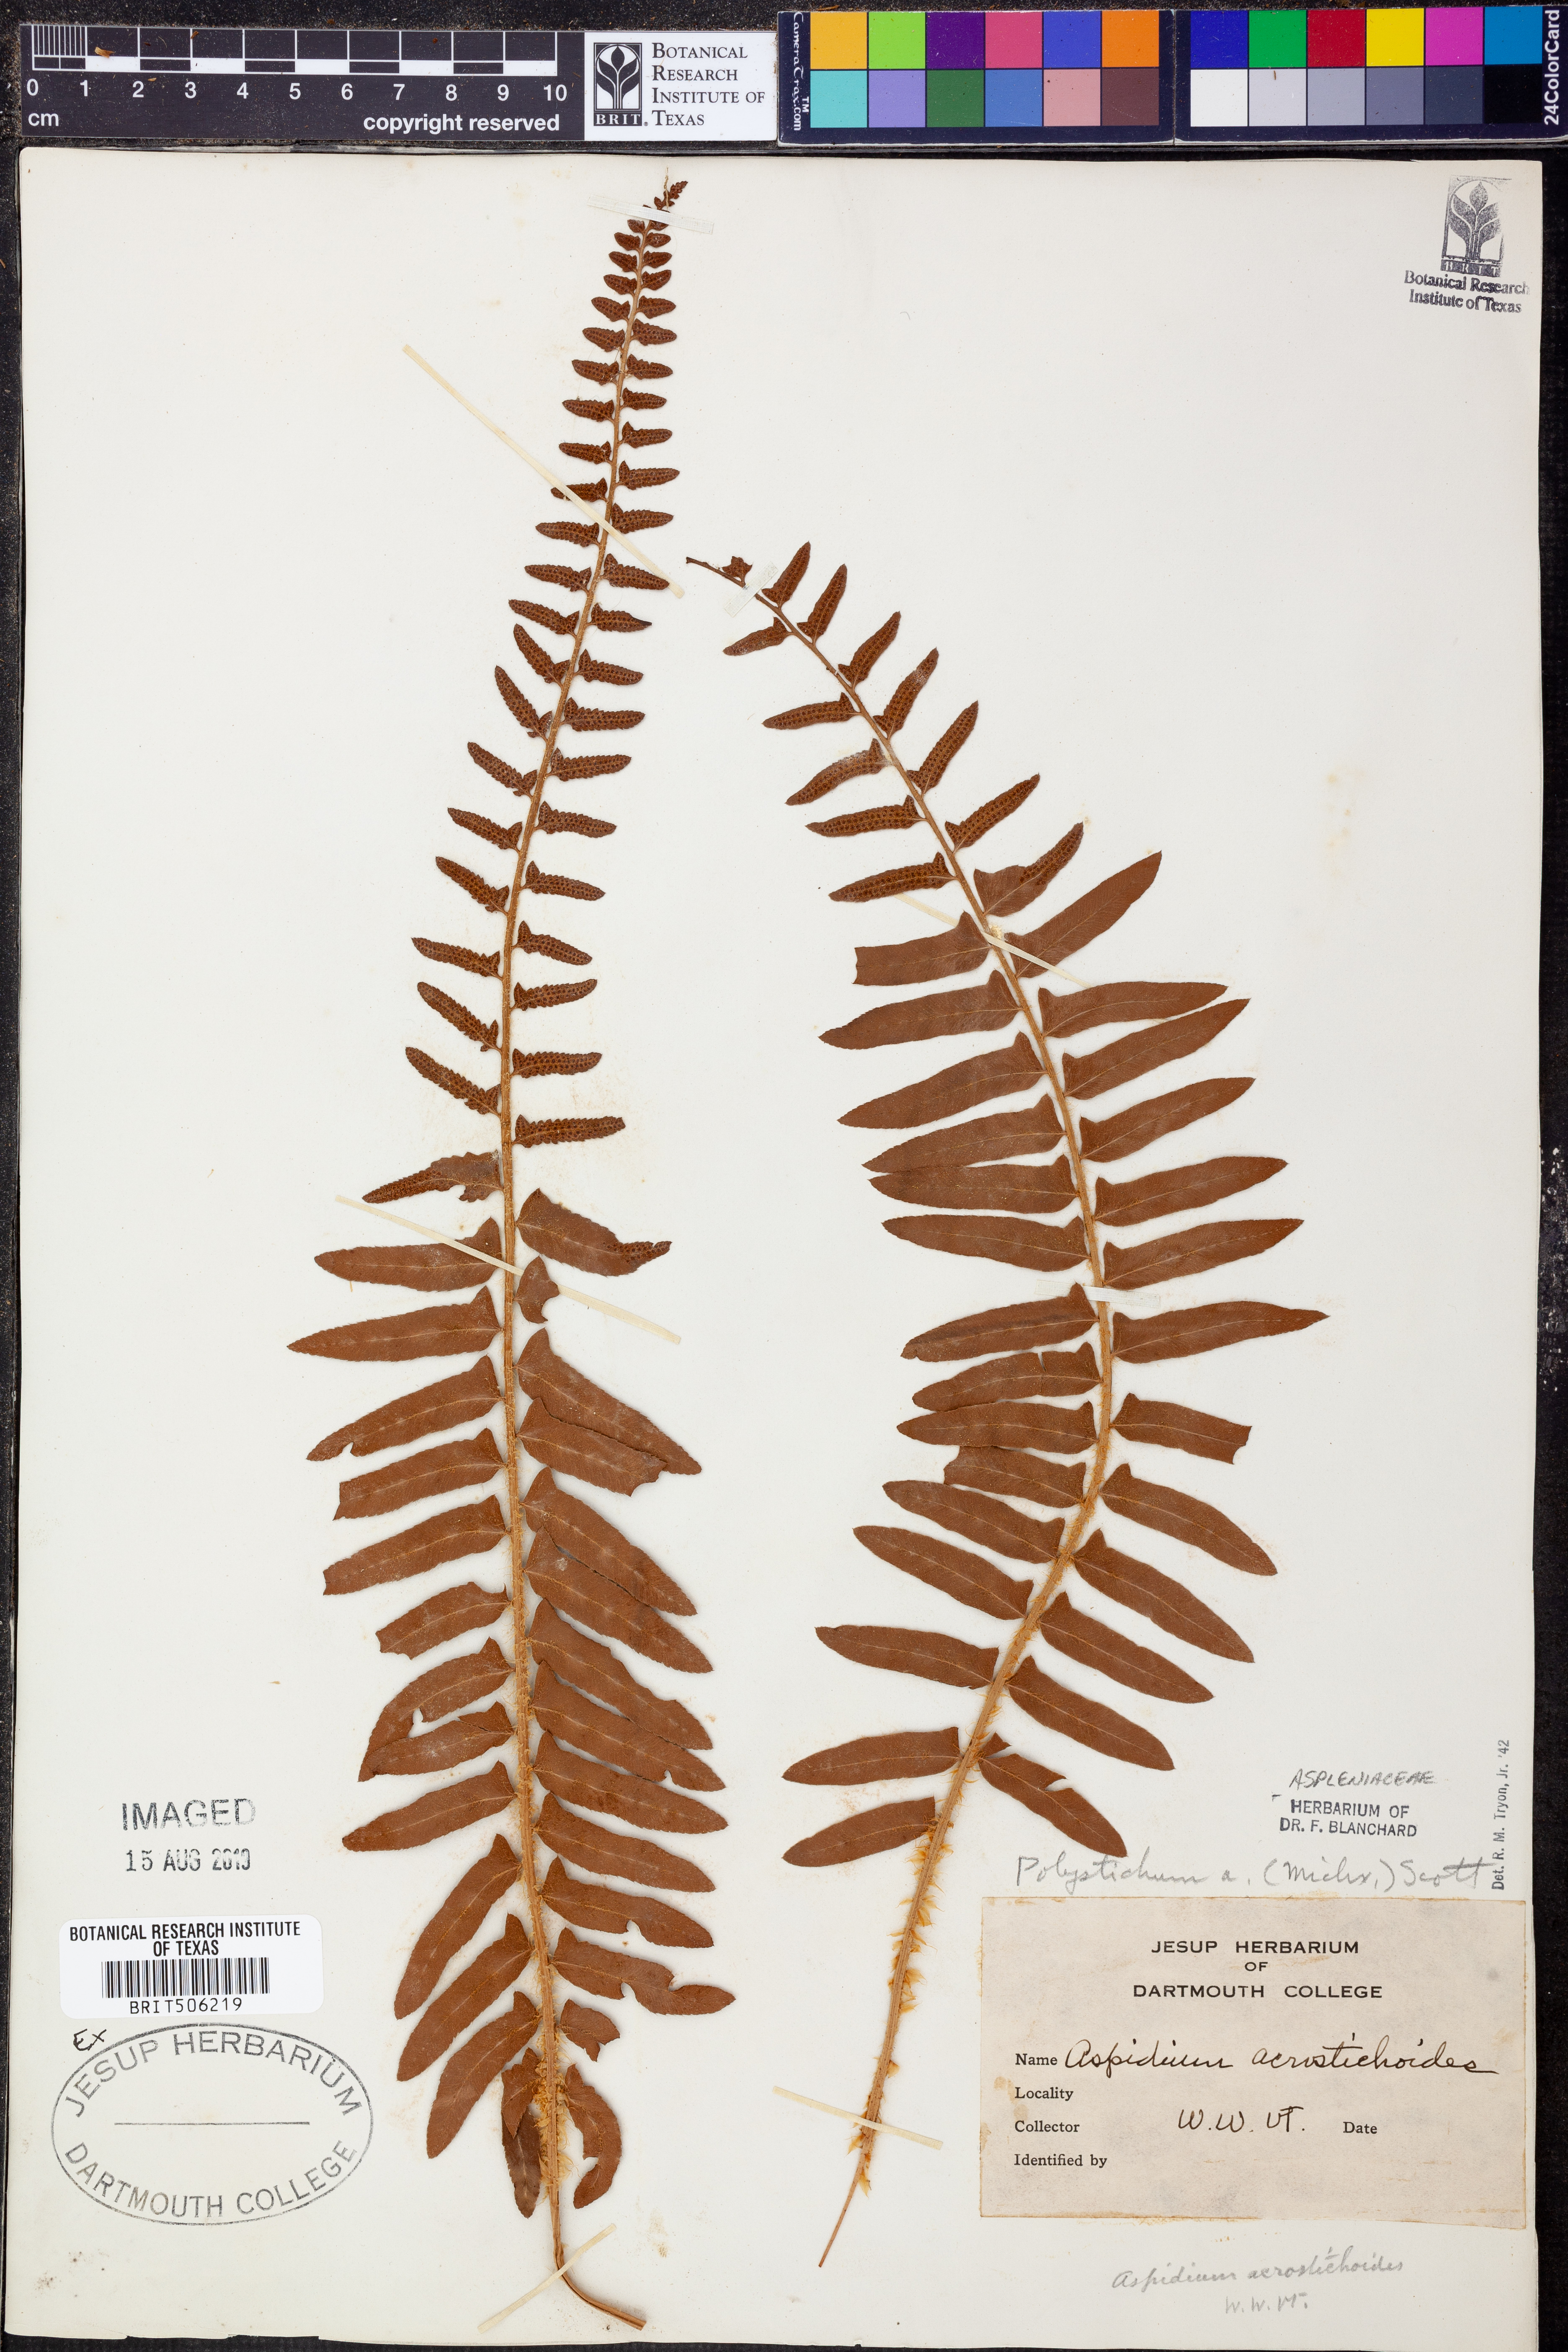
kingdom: Plantae
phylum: Tracheophyta
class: Polypodiopsida
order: Polypodiales
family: Dryopteridaceae
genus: Polystichum
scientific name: Polystichum acrostichoides
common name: Christmas fern
